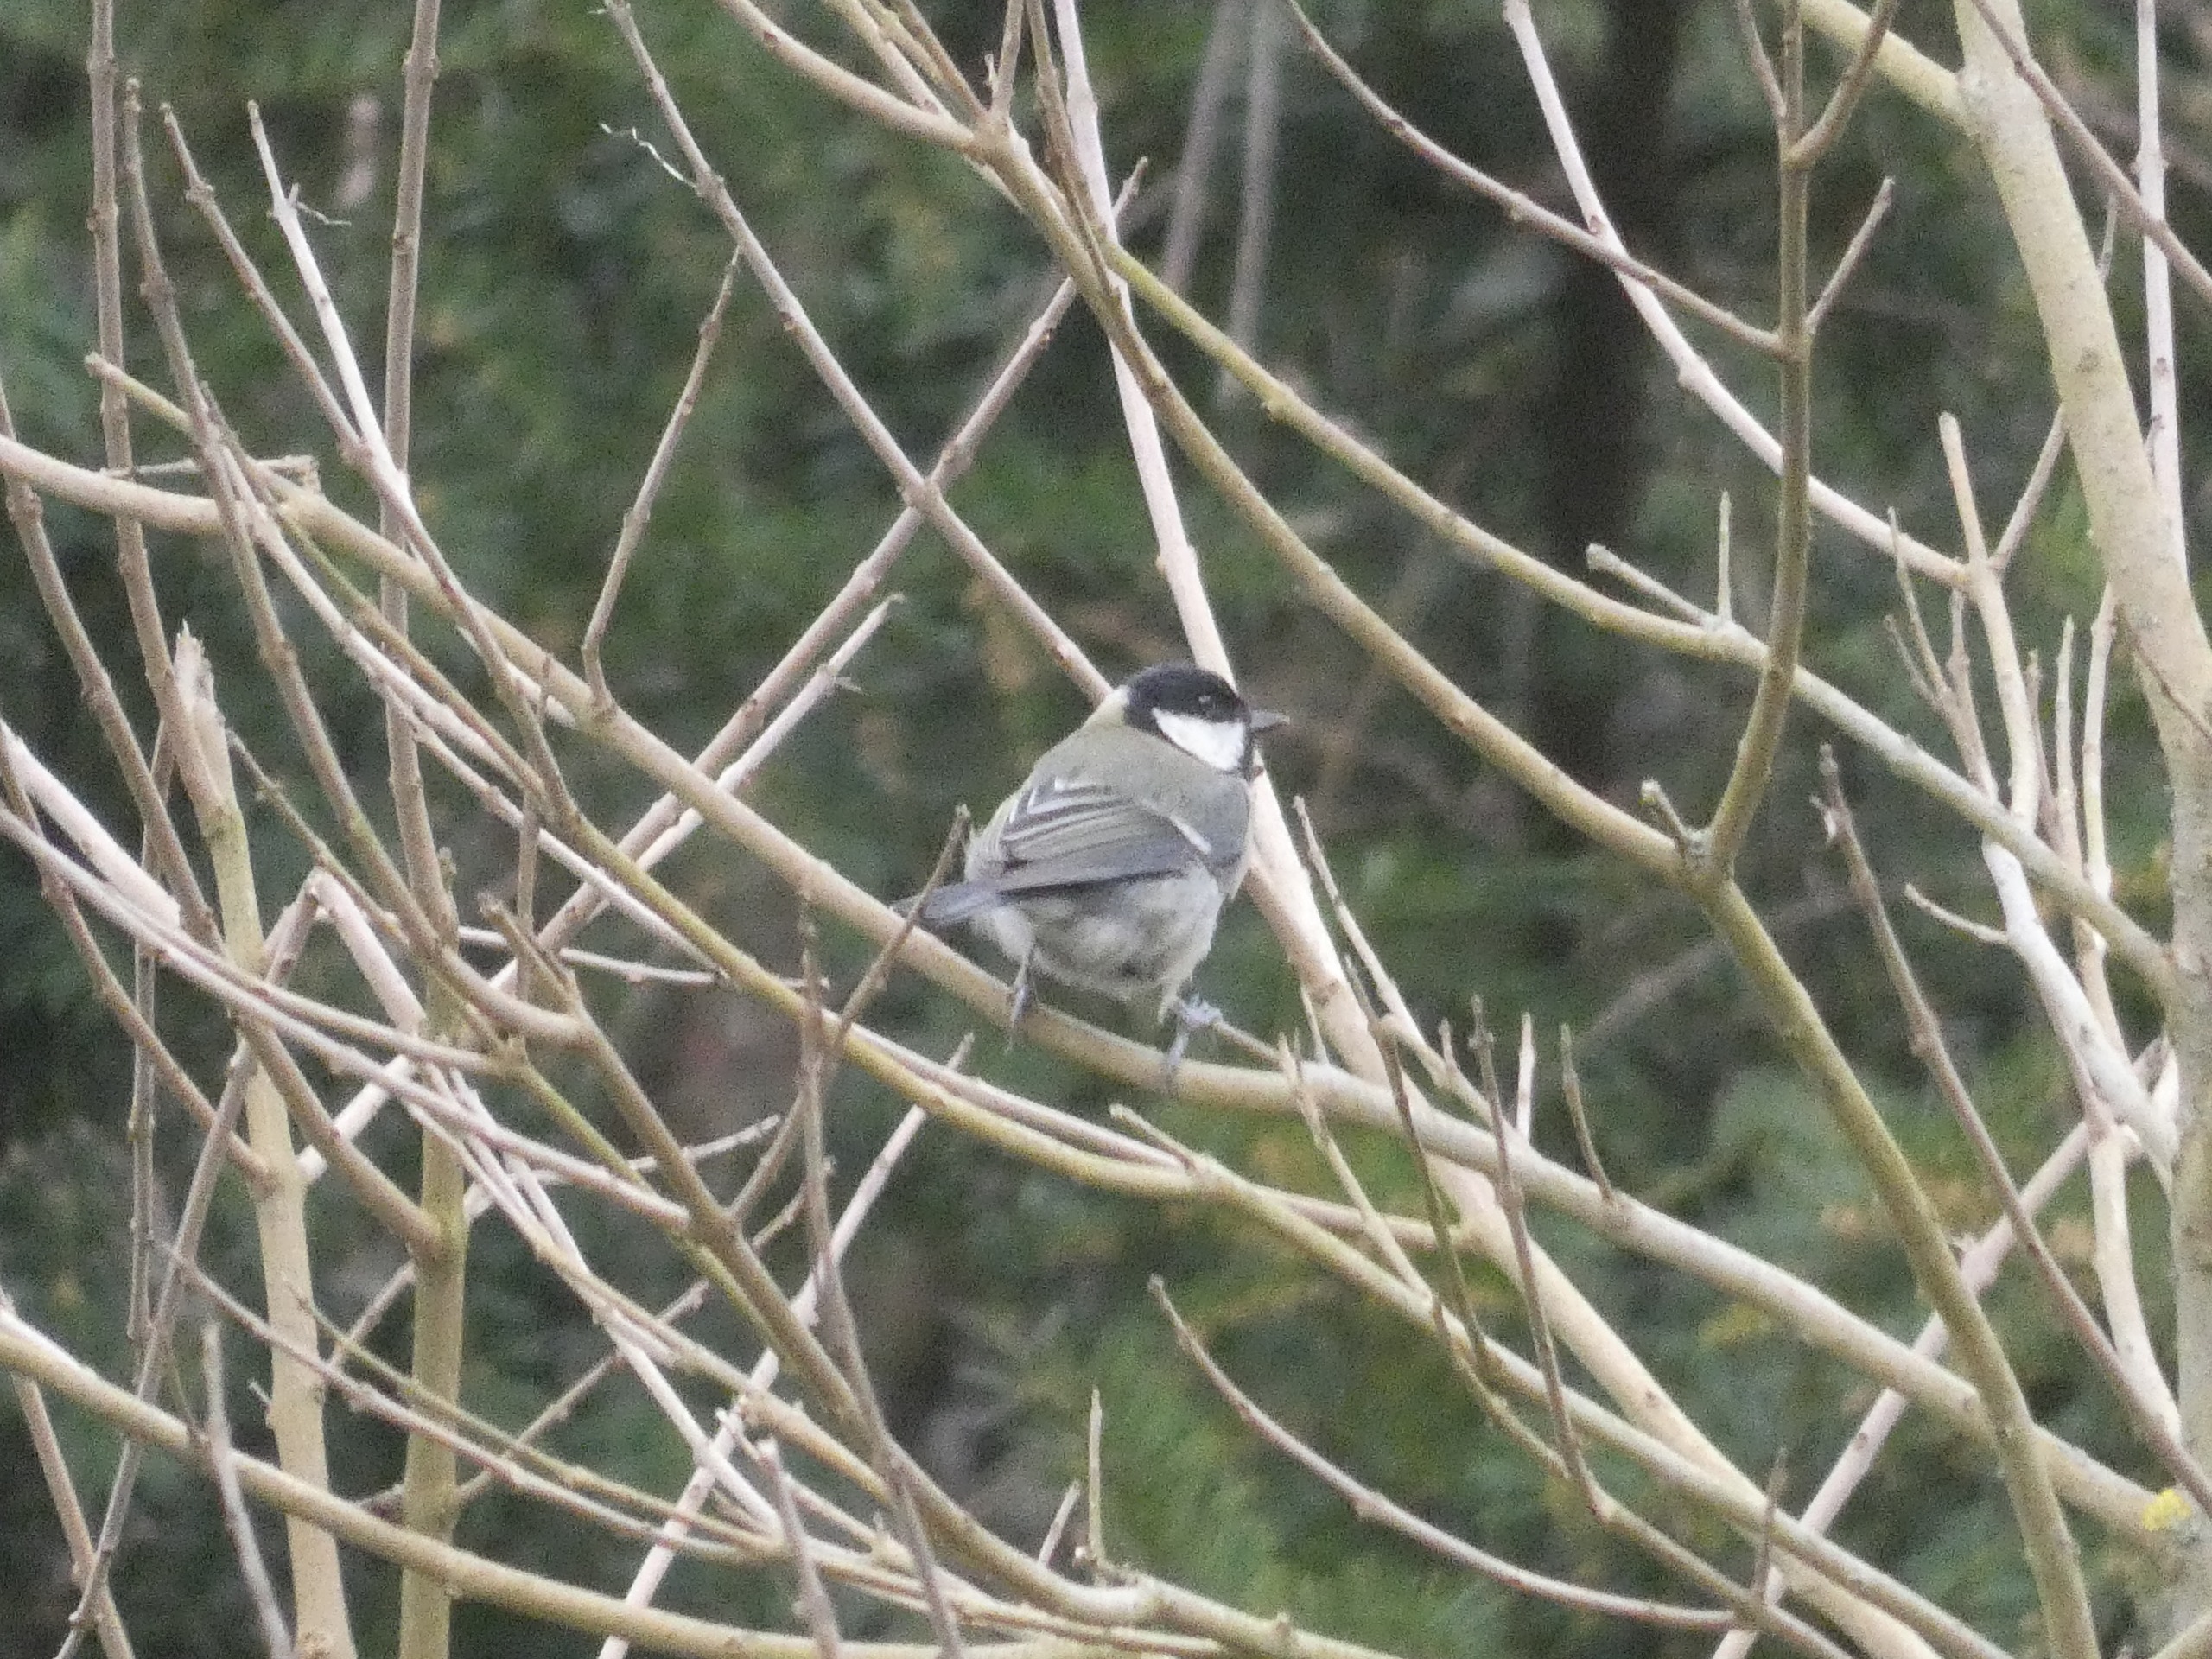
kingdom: Animalia
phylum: Chordata
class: Aves
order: Passeriformes
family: Paridae
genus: Parus
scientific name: Parus major
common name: Musvit
